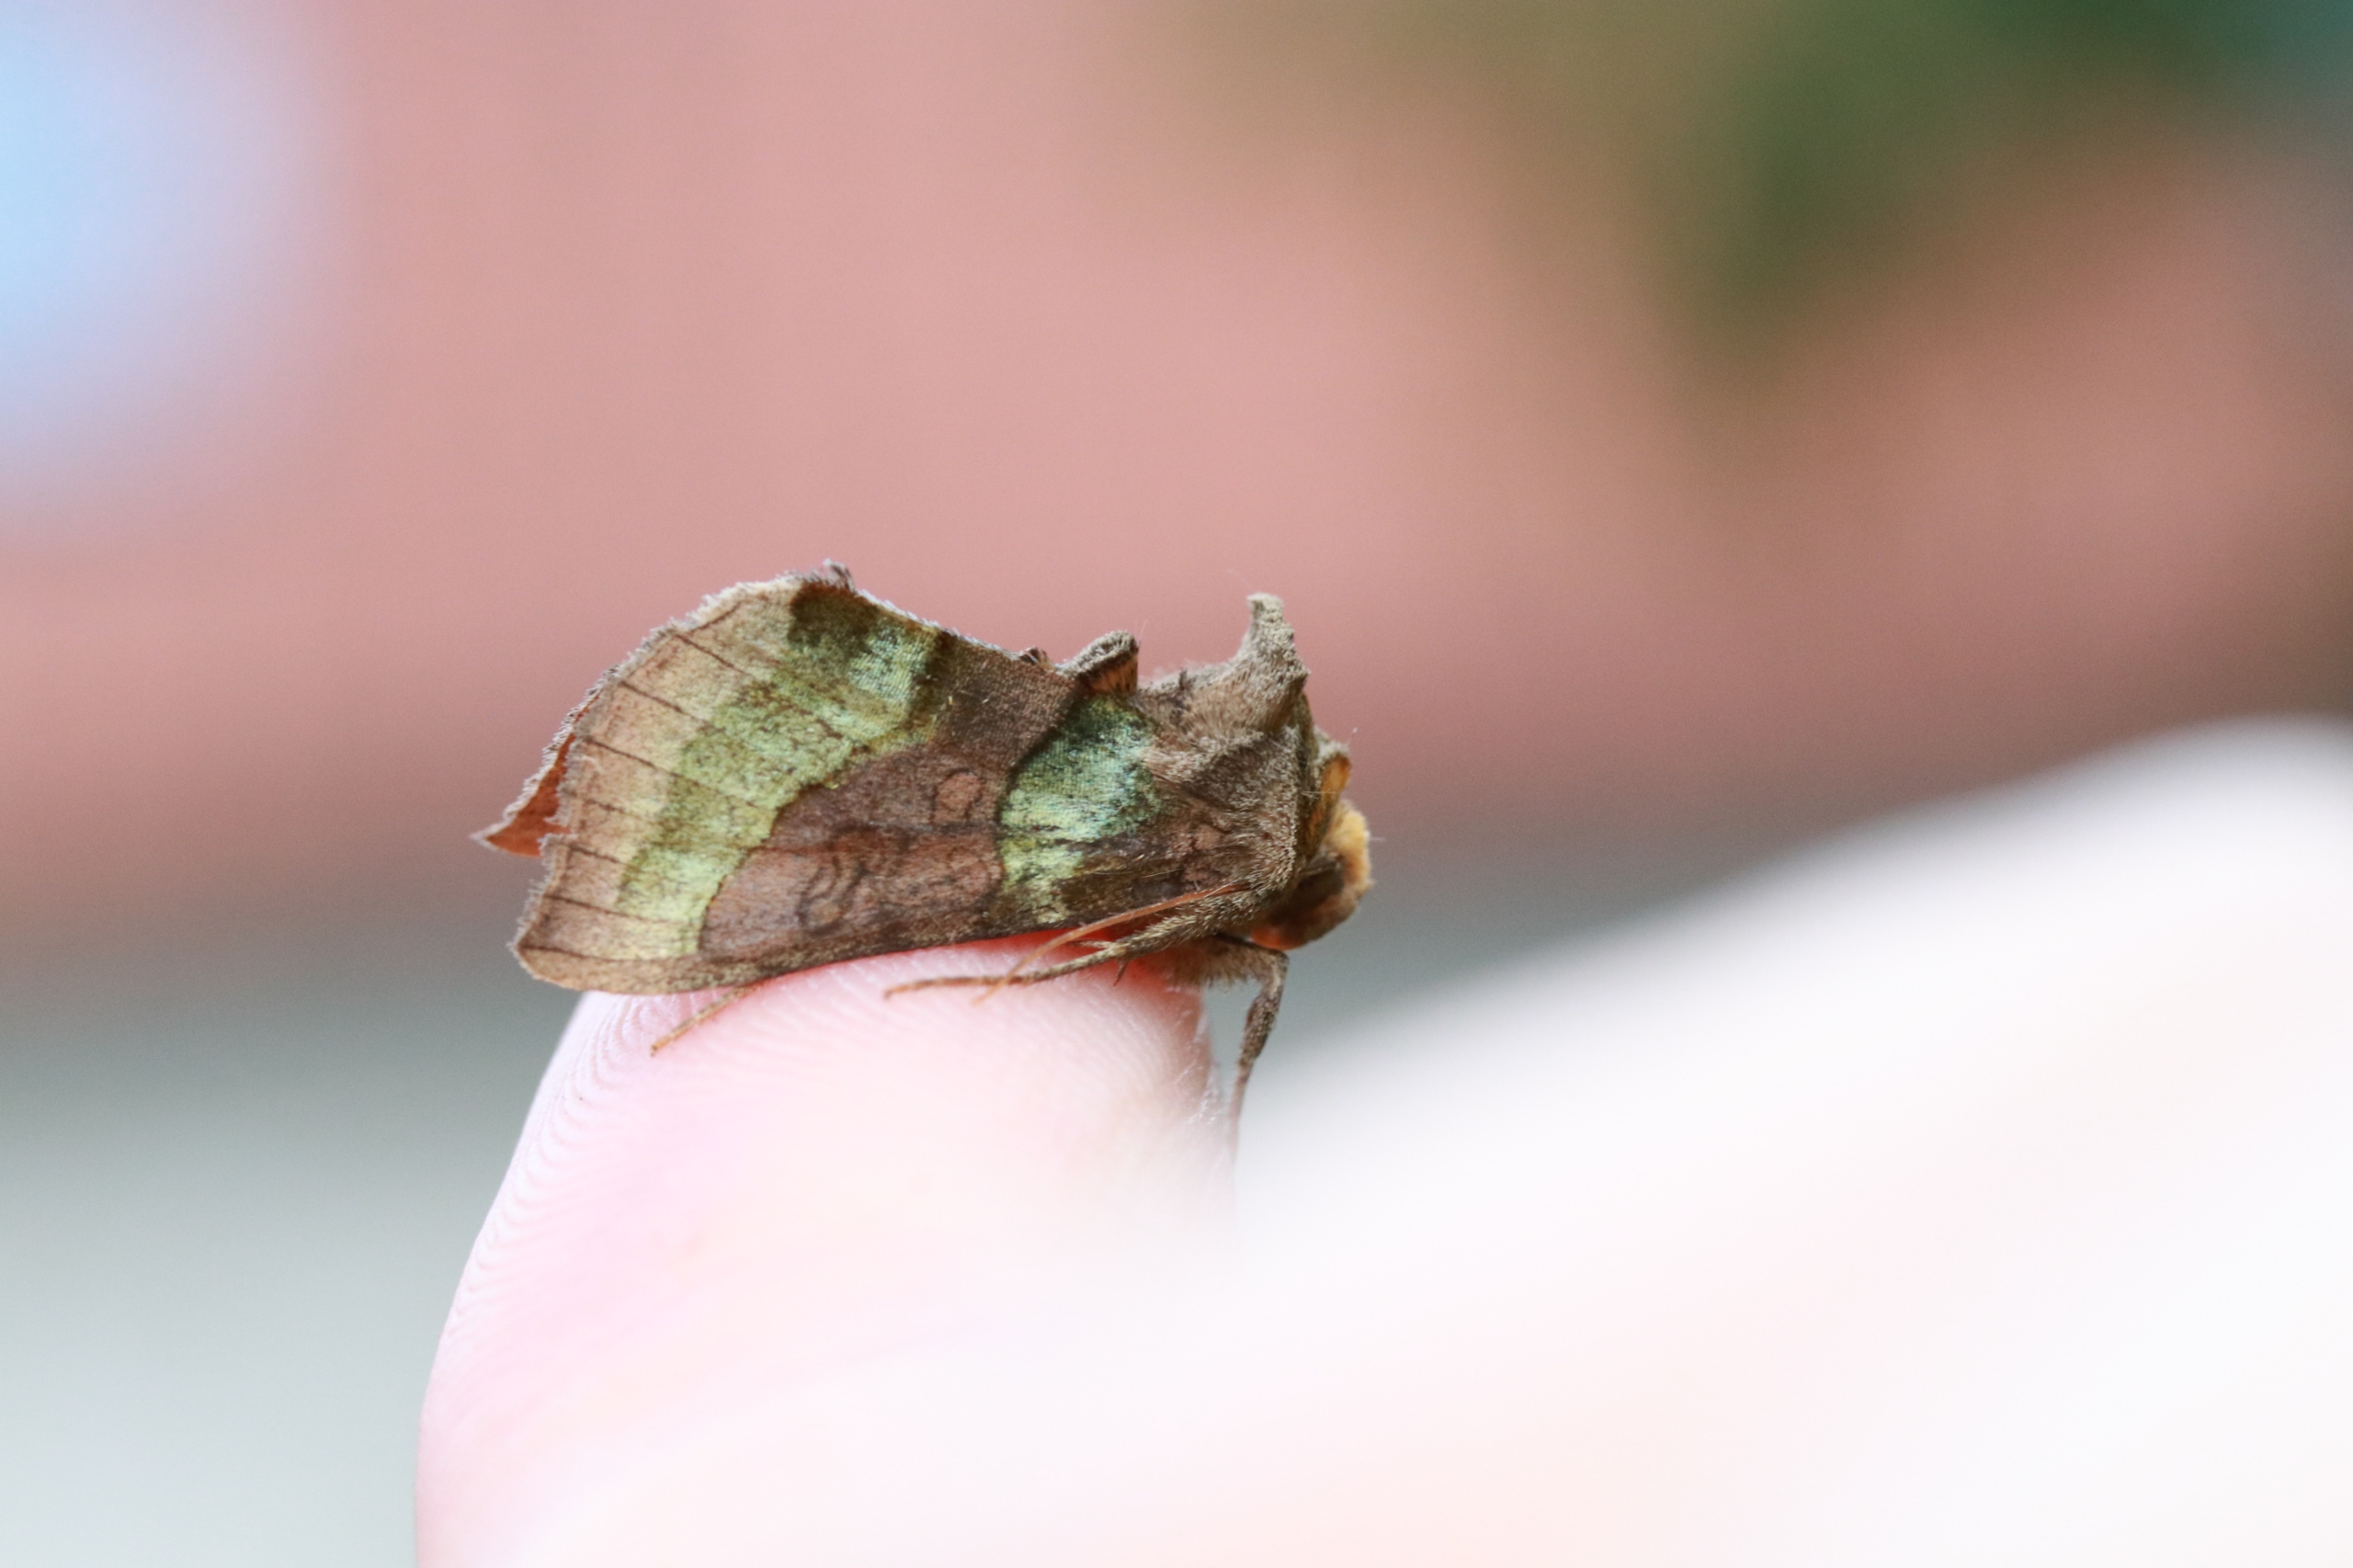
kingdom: Animalia
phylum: Arthropoda
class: Insecta
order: Lepidoptera
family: Noctuidae
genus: Diachrysia
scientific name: Diachrysia chrysitis
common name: Messingugle
